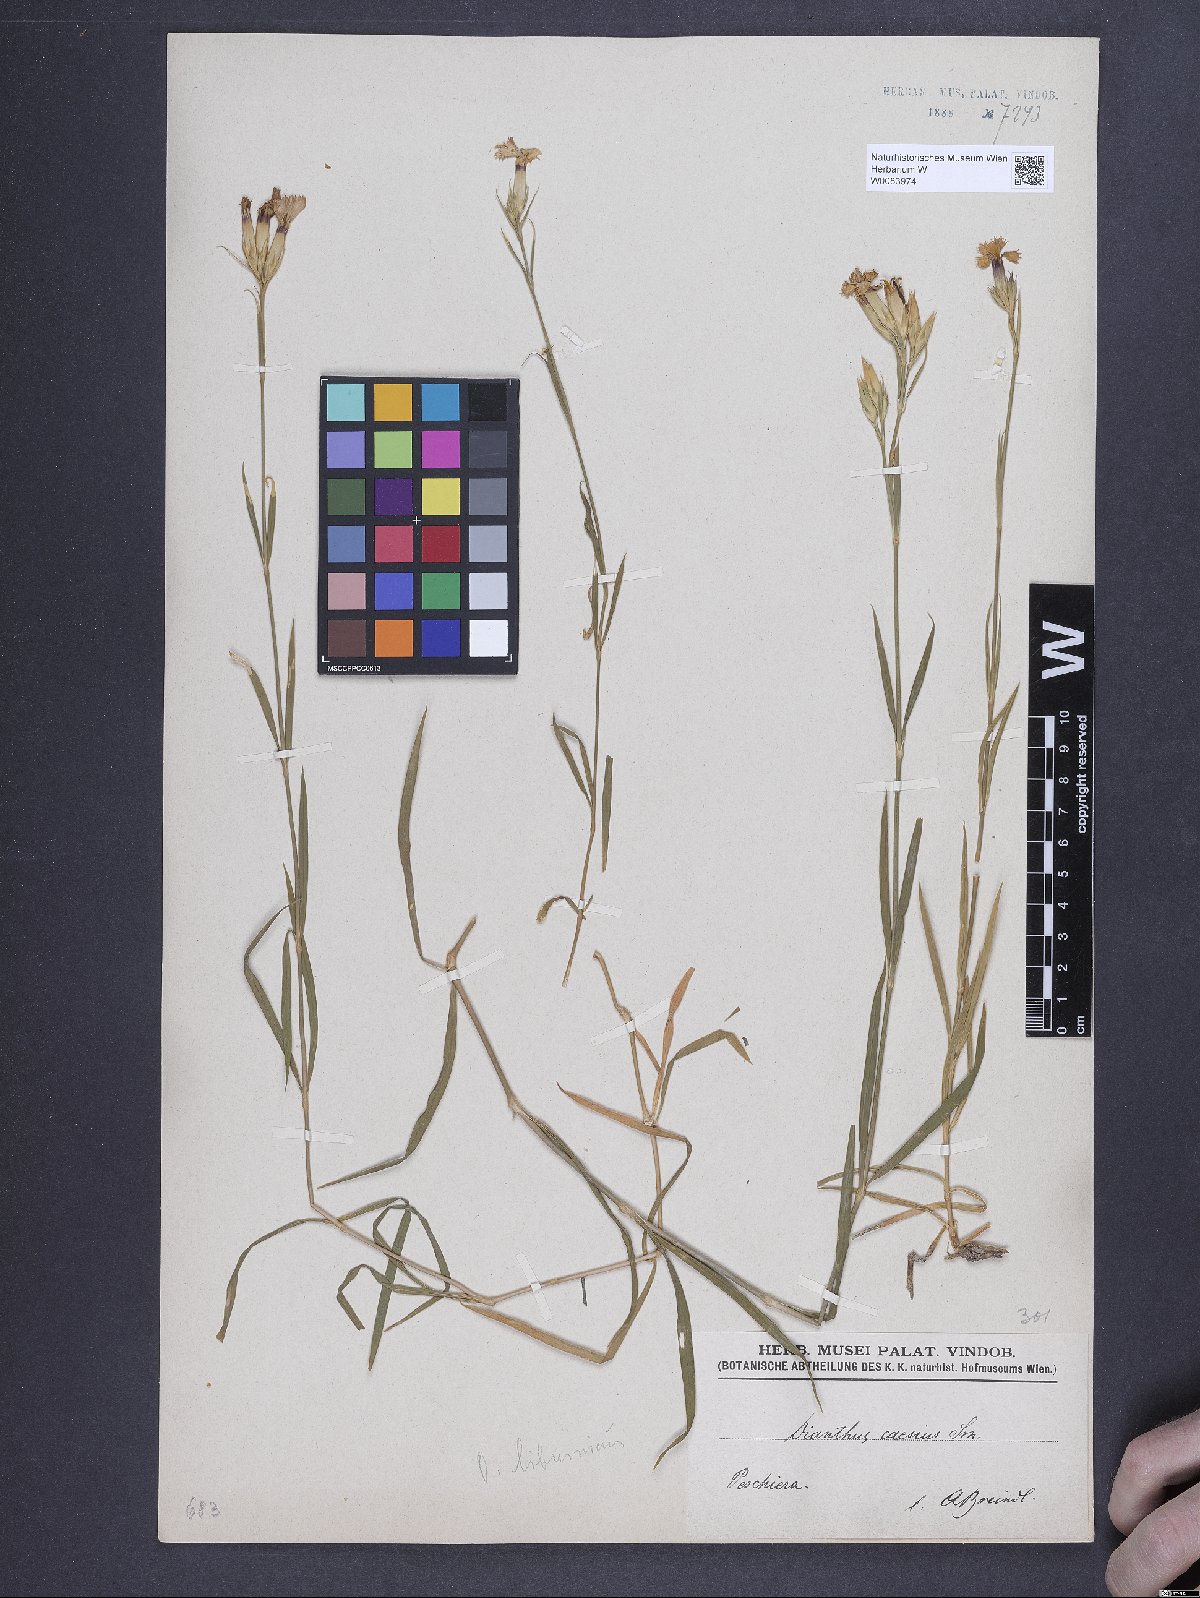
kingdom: Plantae
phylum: Tracheophyta
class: Magnoliopsida
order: Caryophyllales
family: Caryophyllaceae
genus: Dianthus
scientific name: Dianthus gratianopolitanus
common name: Cheddar pink
